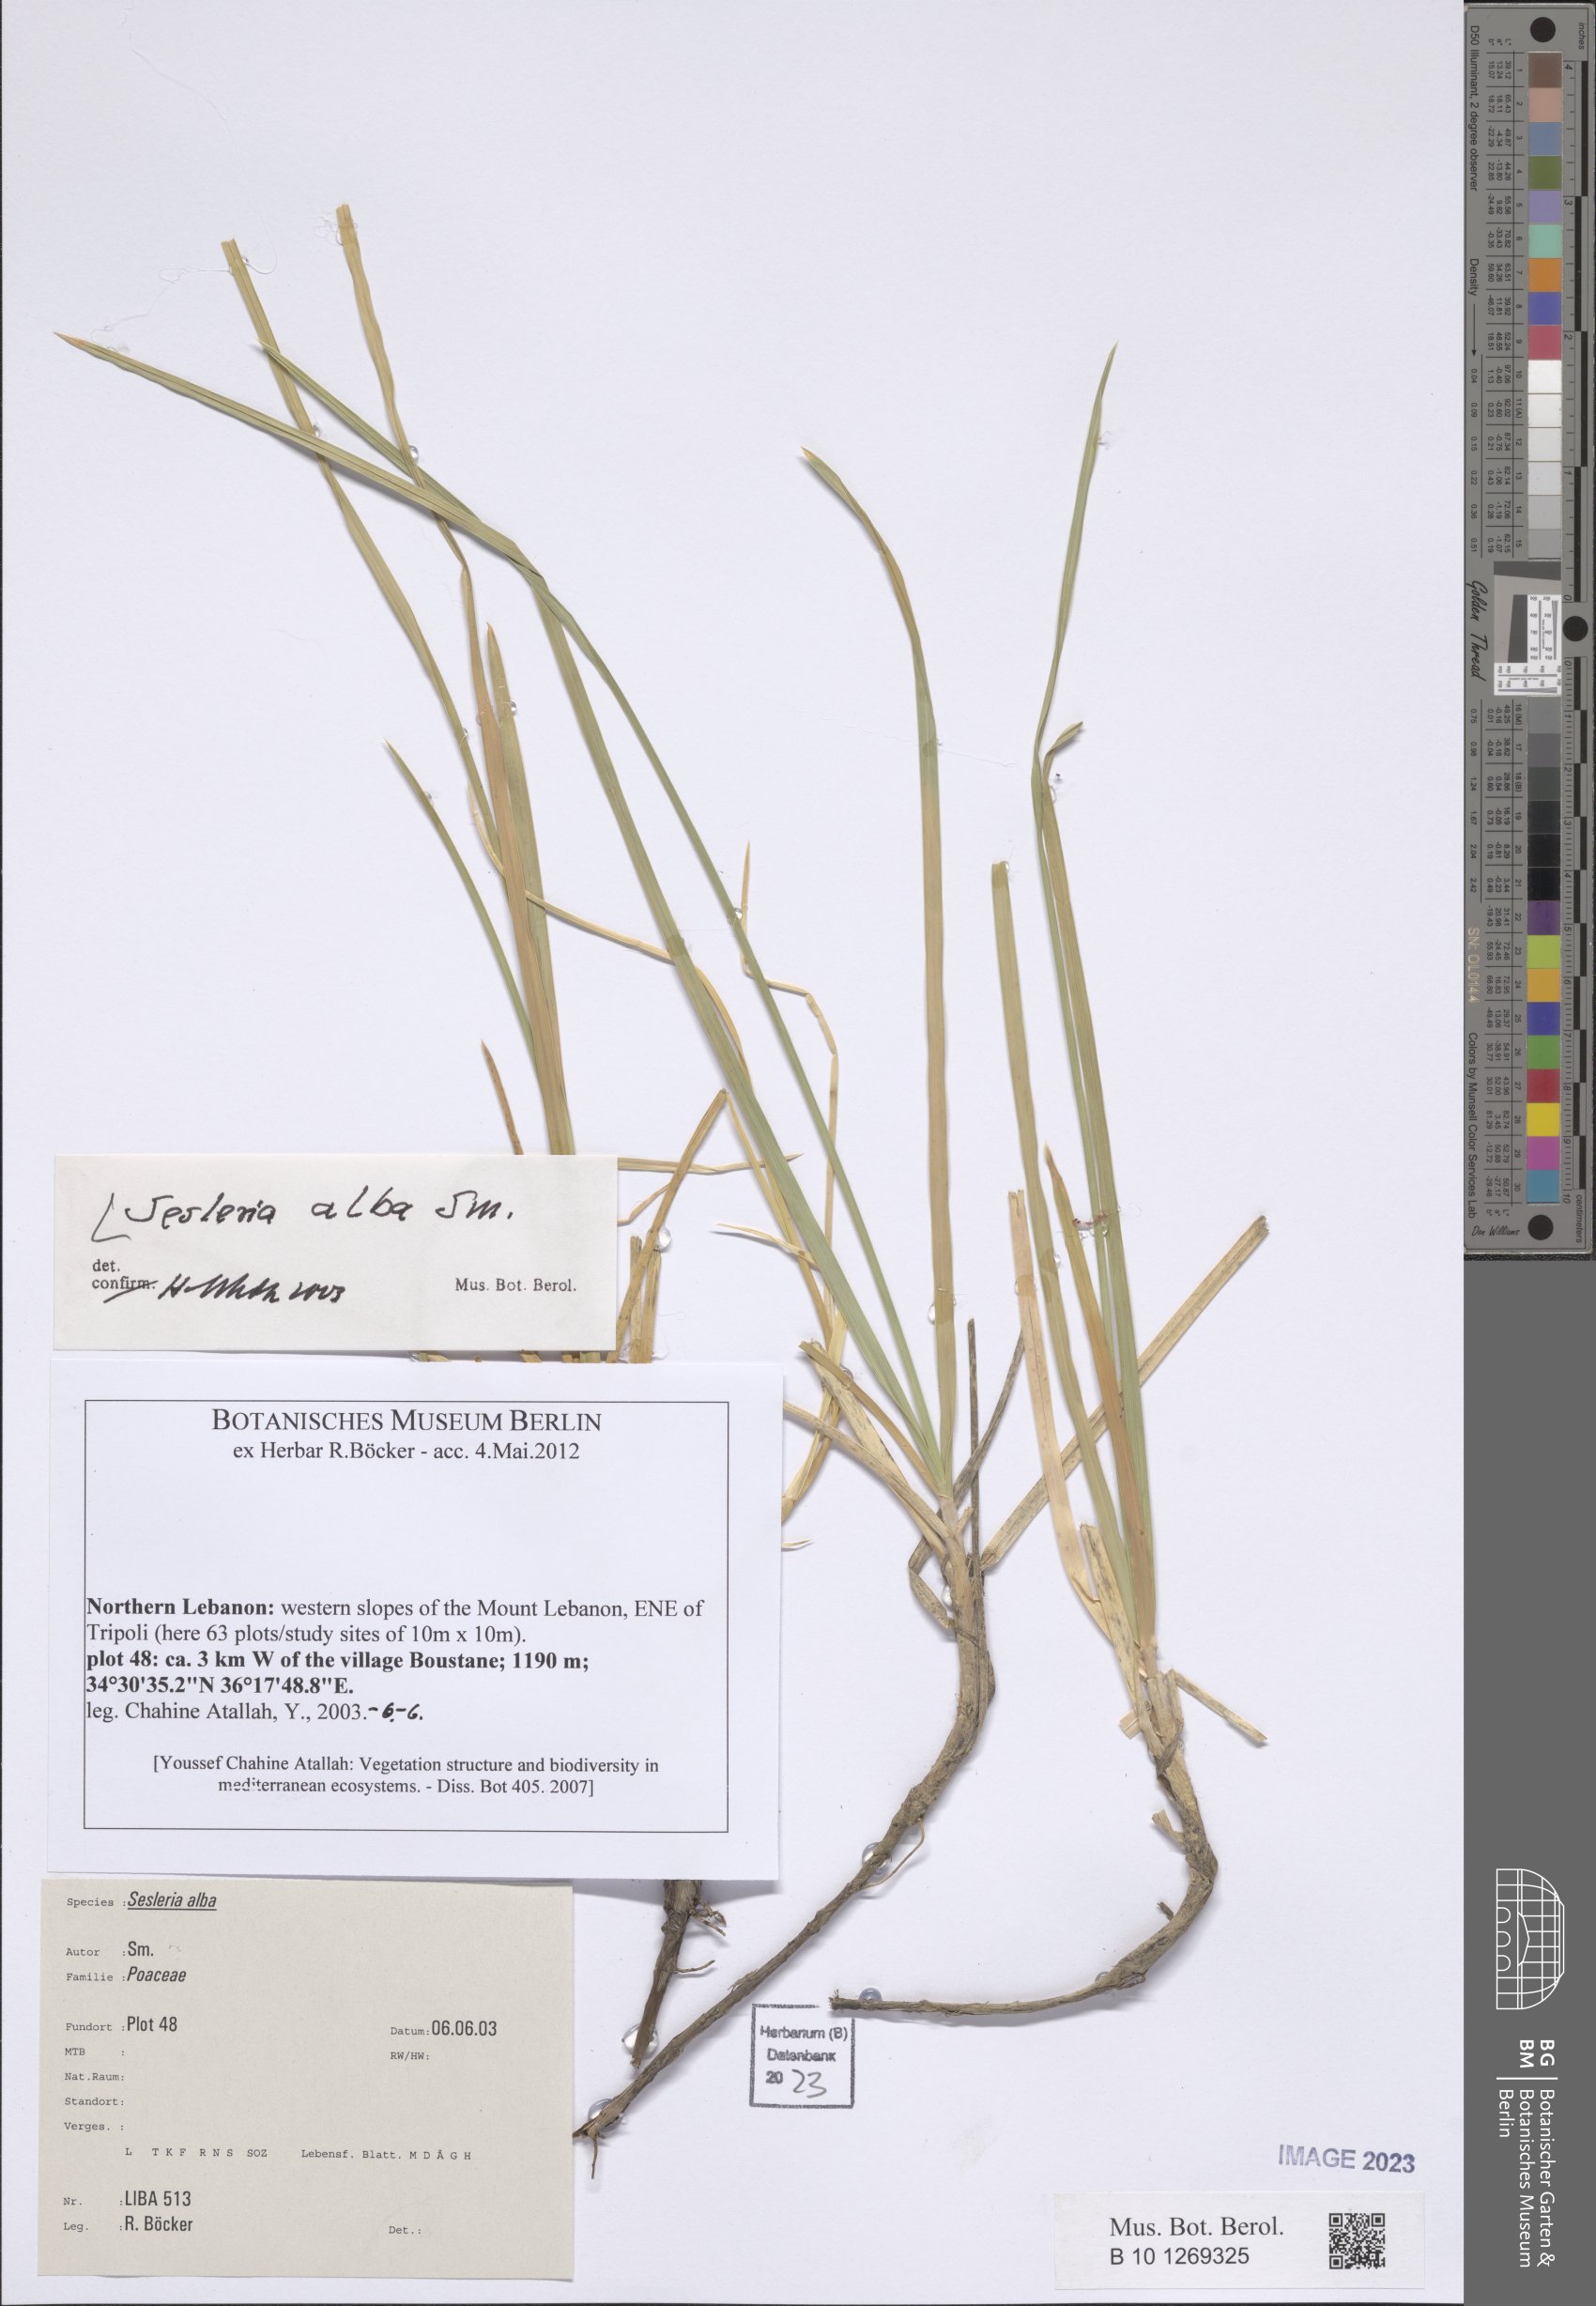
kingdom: Plantae
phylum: Tracheophyta
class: Liliopsida
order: Poales
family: Poaceae
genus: Sesleria
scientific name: Sesleria alba
